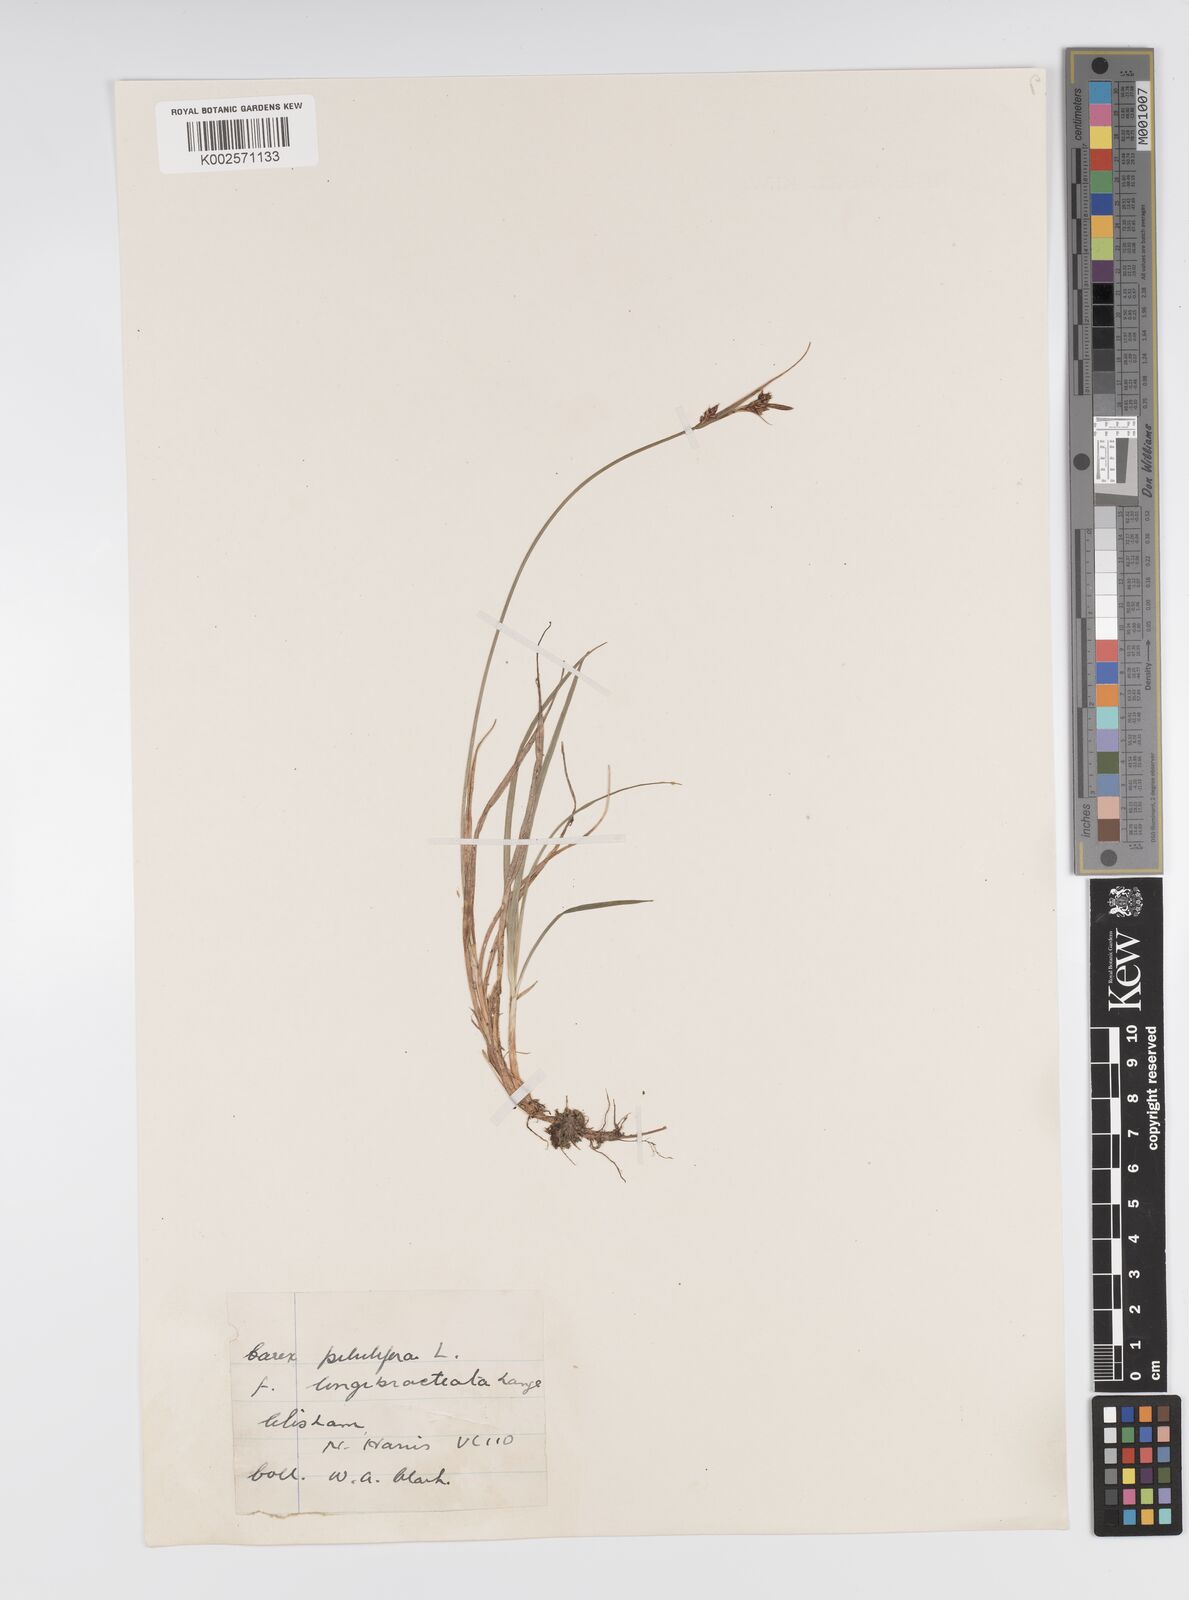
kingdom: Plantae
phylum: Tracheophyta
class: Liliopsida
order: Poales
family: Cyperaceae
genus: Carex
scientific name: Carex pilulifera
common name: Pill sedge
